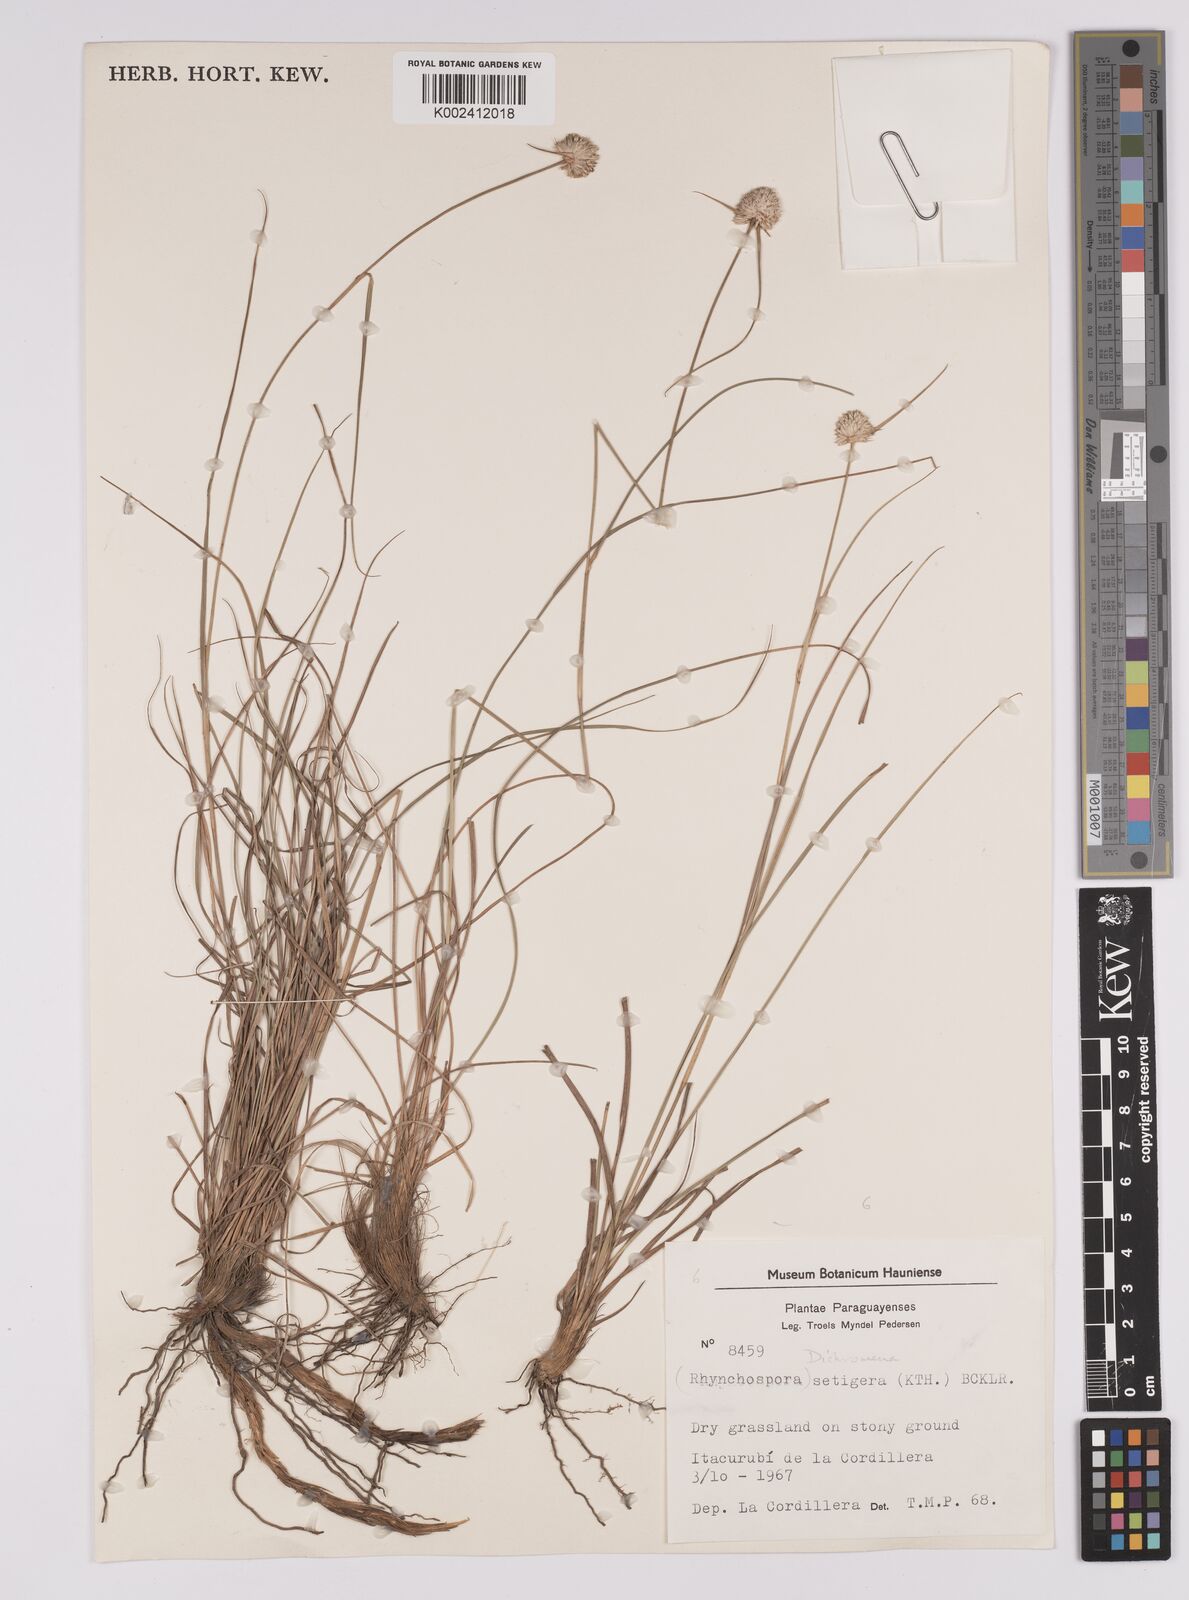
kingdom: Plantae
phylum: Tracheophyta
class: Liliopsida
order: Poales
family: Cyperaceae
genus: Rhynchospora
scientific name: Rhynchospora setigera
